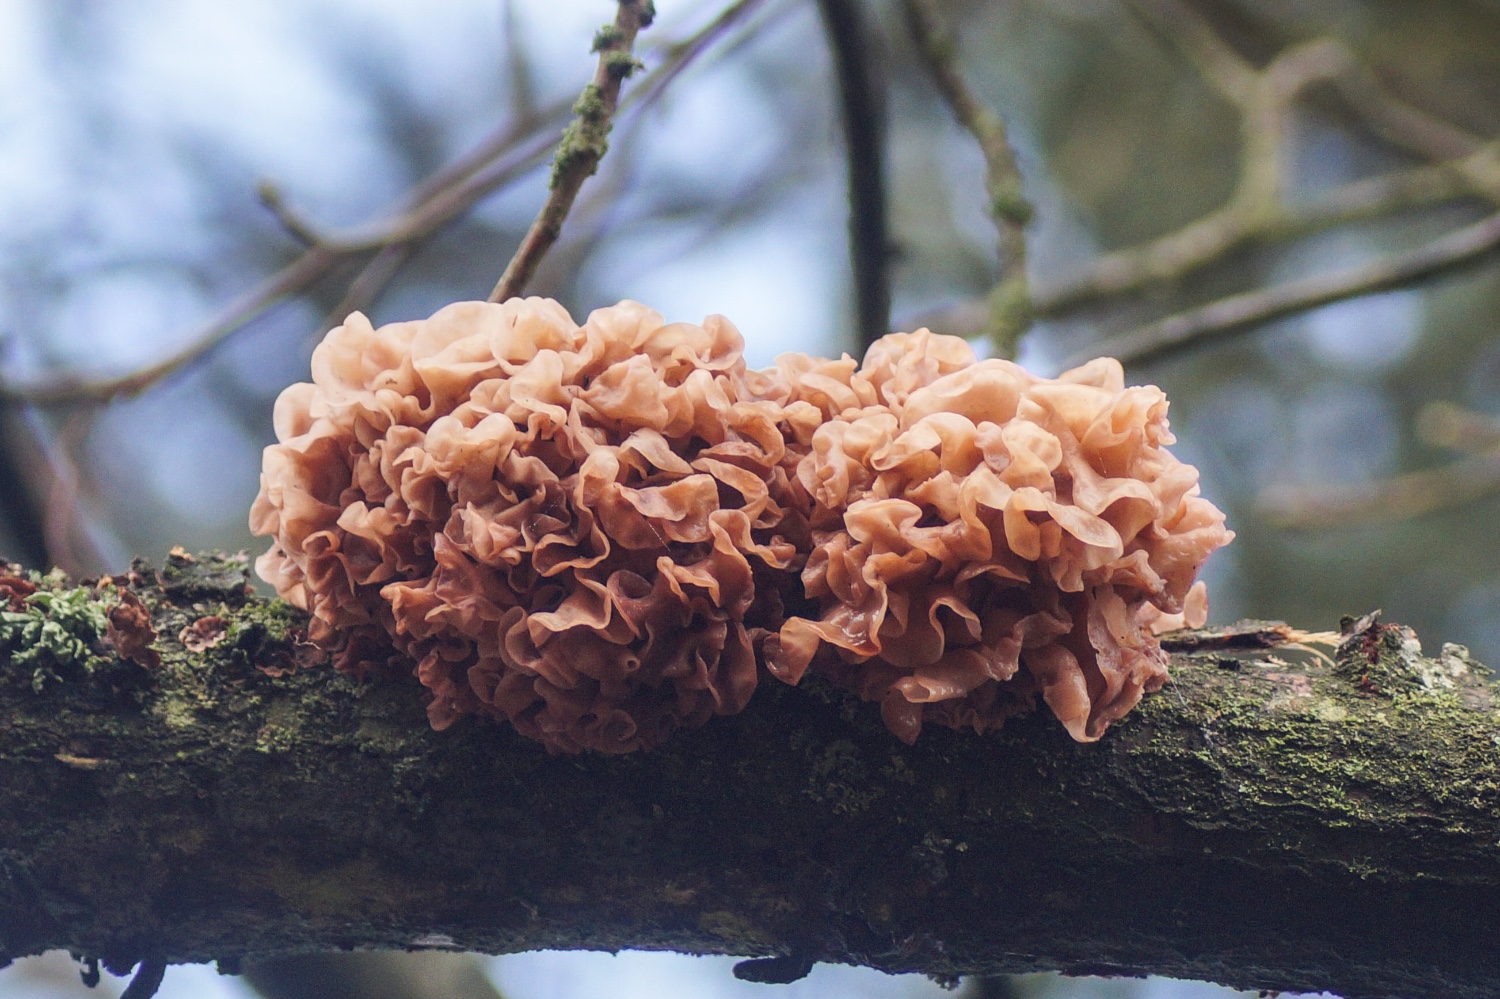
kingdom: Fungi
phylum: Basidiomycota
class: Tremellomycetes
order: Tremellales
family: Tremellaceae
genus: Phaeotremella
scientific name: Phaeotremella frondosa
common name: kæmpe-bævresvamp
